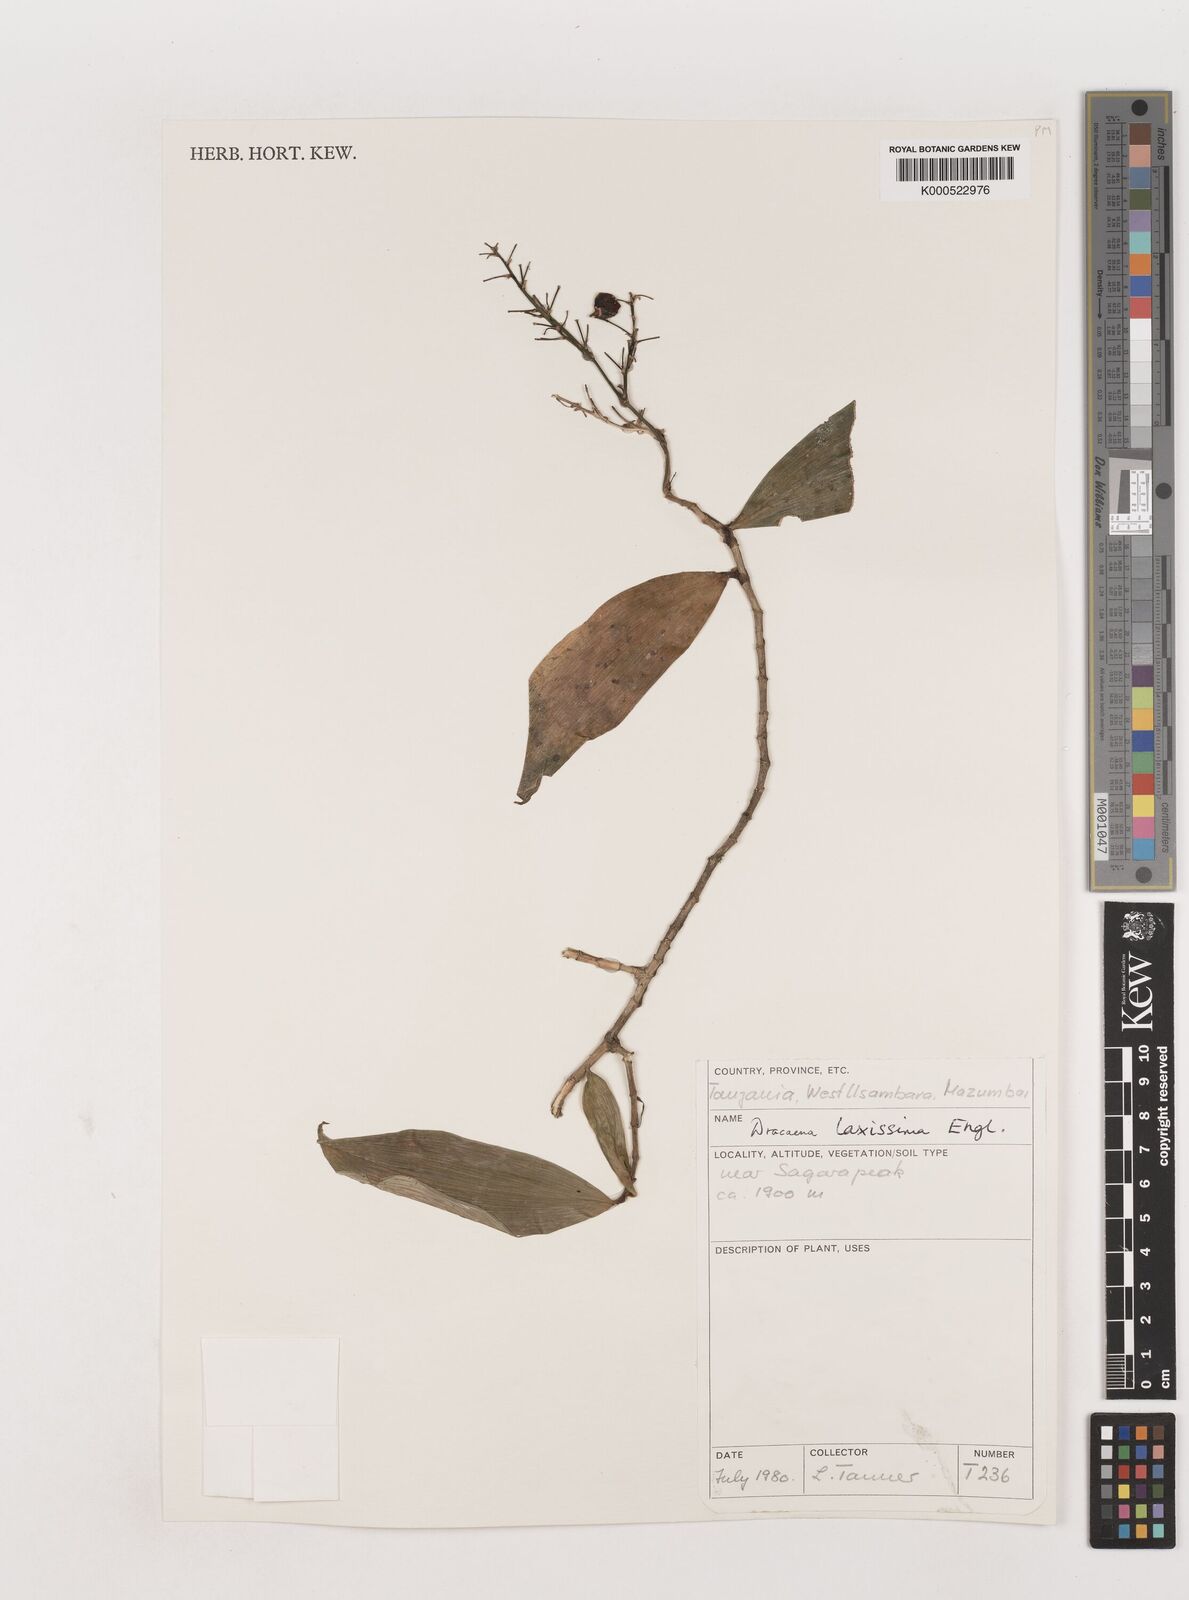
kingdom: Plantae
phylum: Tracheophyta
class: Liliopsida
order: Asparagales
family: Asparagaceae
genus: Dracaena
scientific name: Dracaena laxissima
